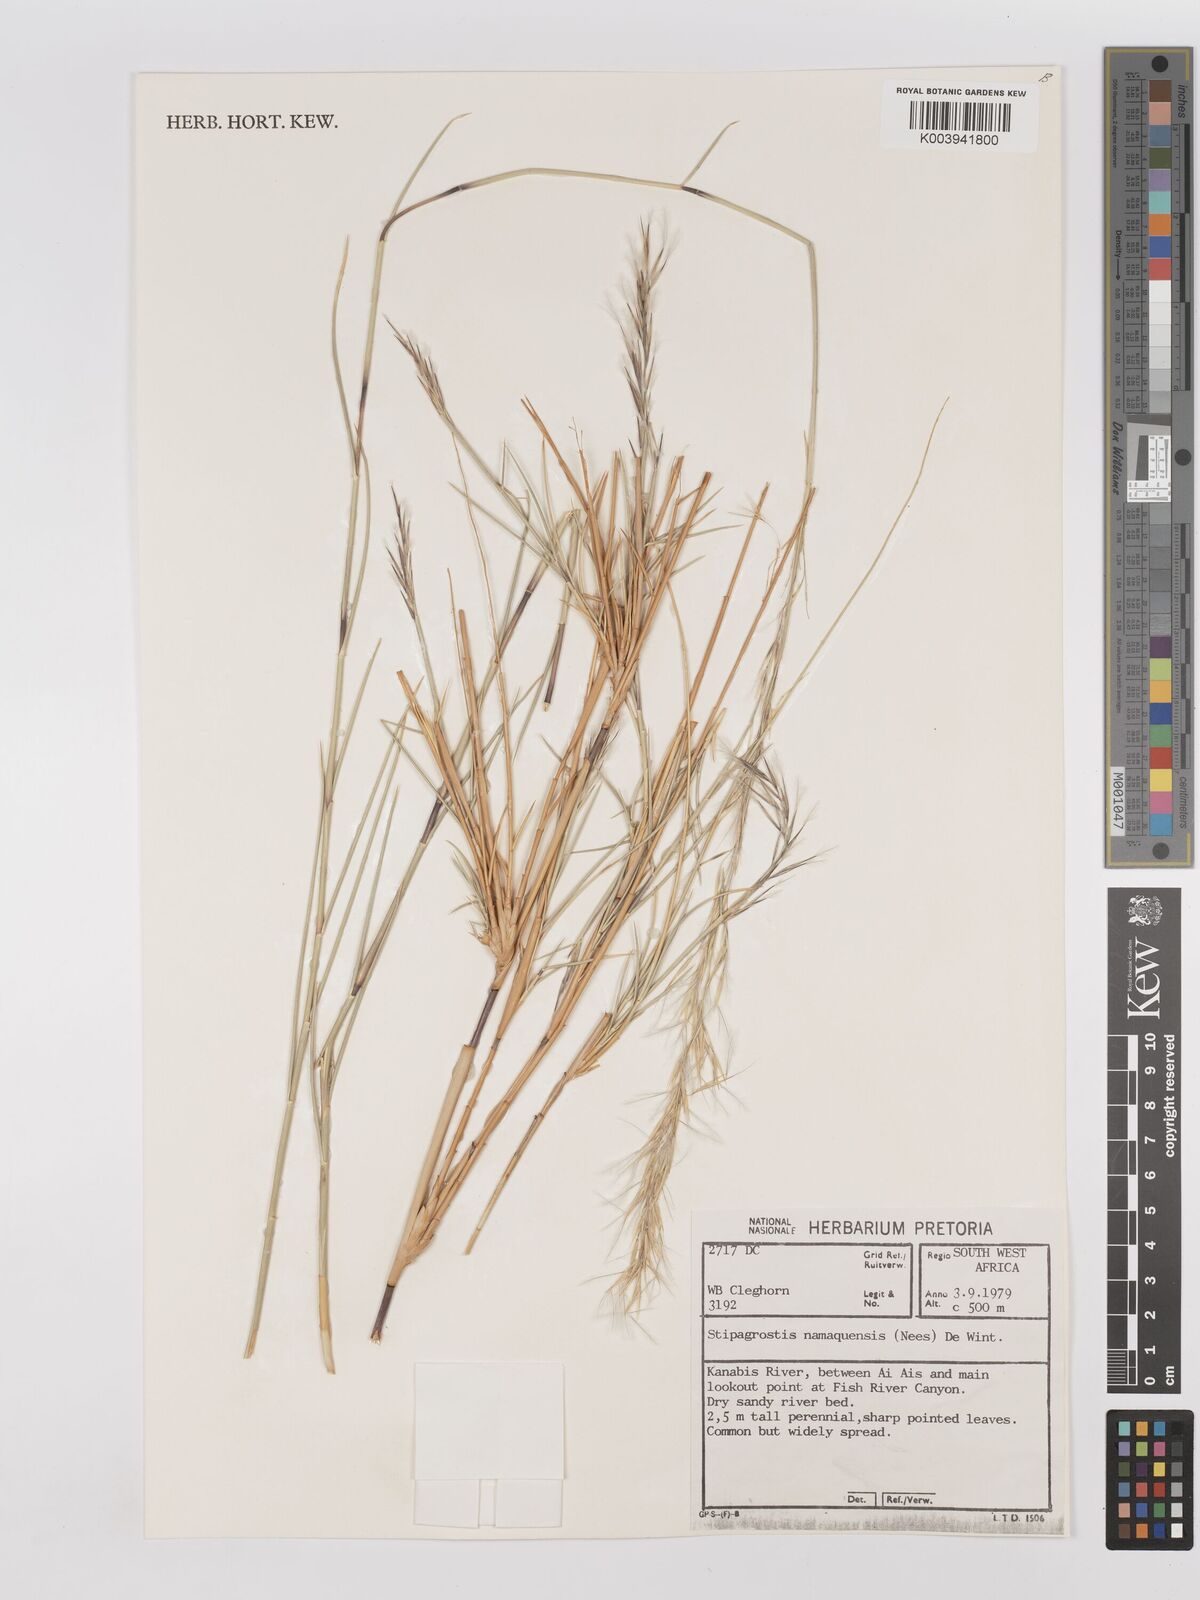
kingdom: Plantae
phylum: Tracheophyta
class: Liliopsida
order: Poales
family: Poaceae
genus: Stipagrostis
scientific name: Stipagrostis namaquensis
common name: River bushman grass
